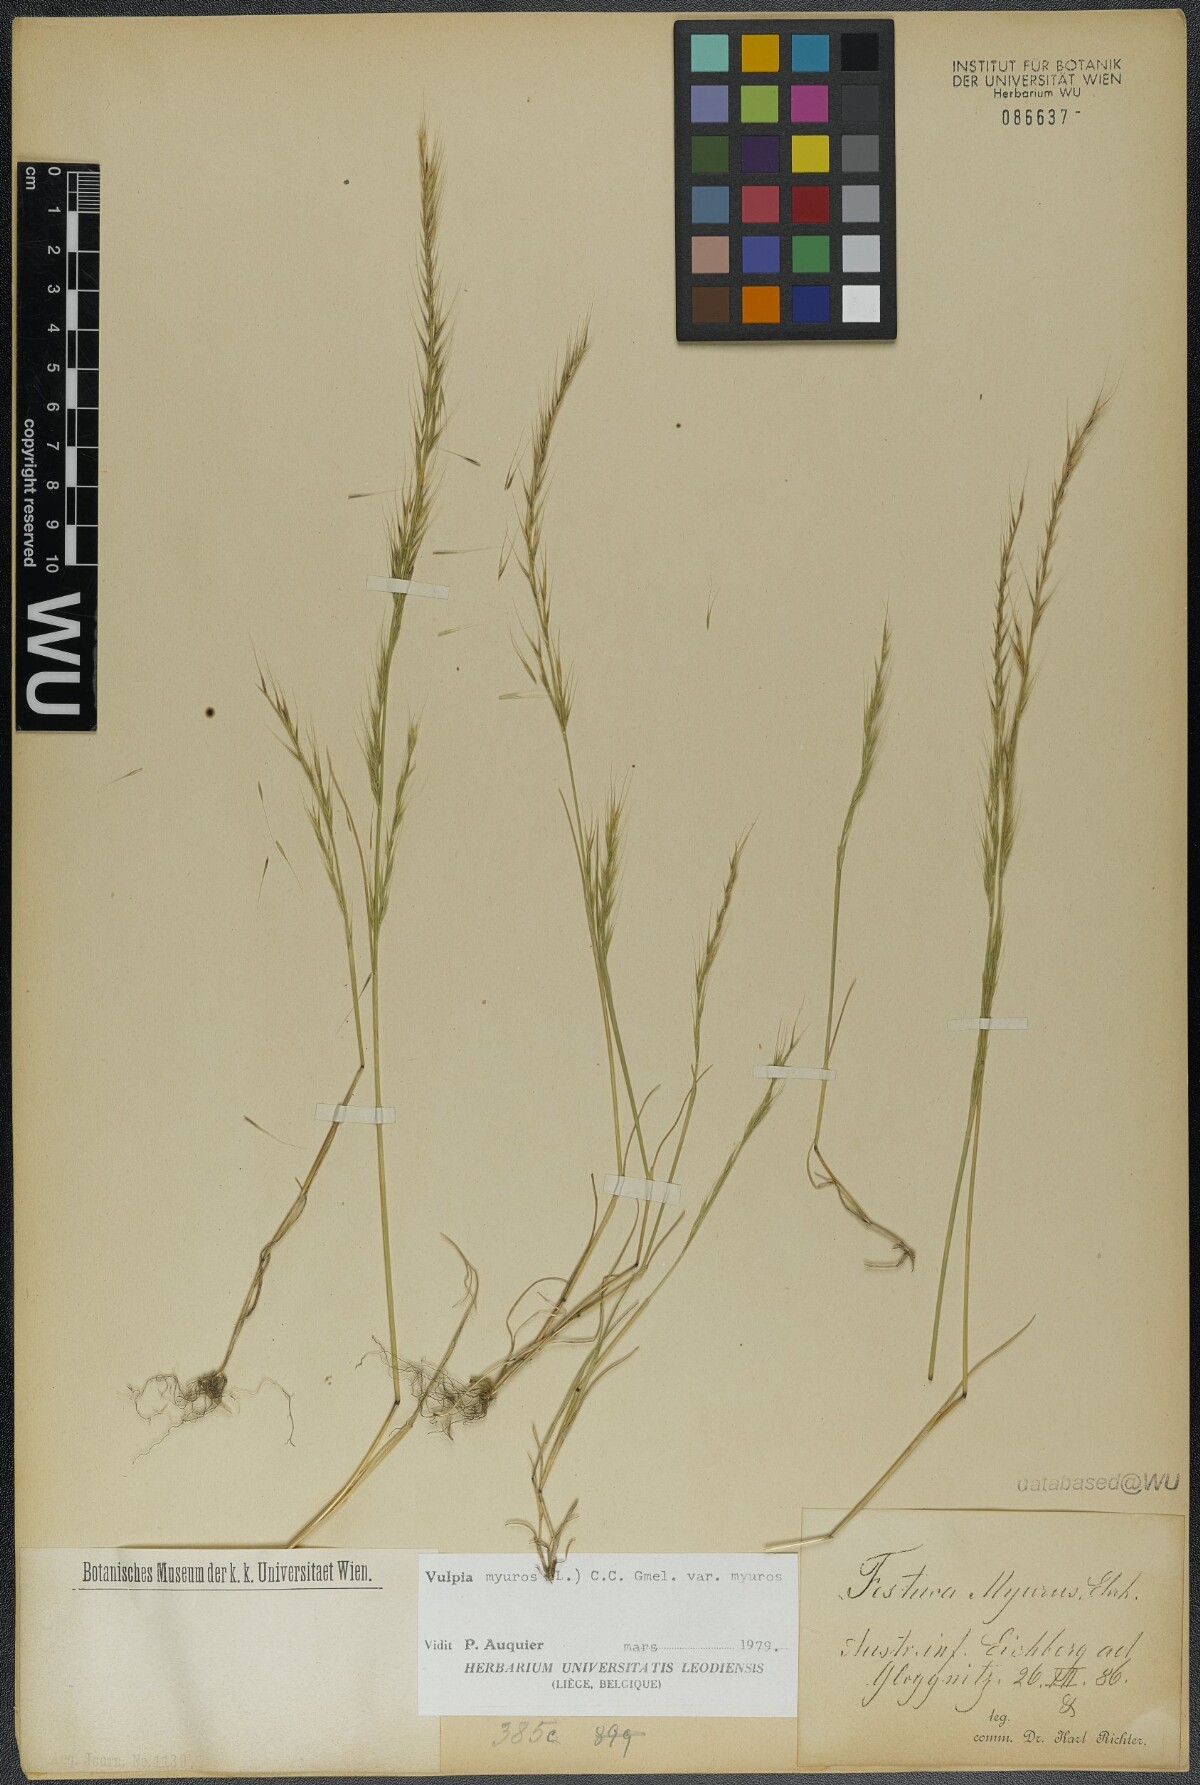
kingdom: Plantae
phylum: Tracheophyta
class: Liliopsida
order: Poales
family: Poaceae
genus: Festuca
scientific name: Festuca myuros
